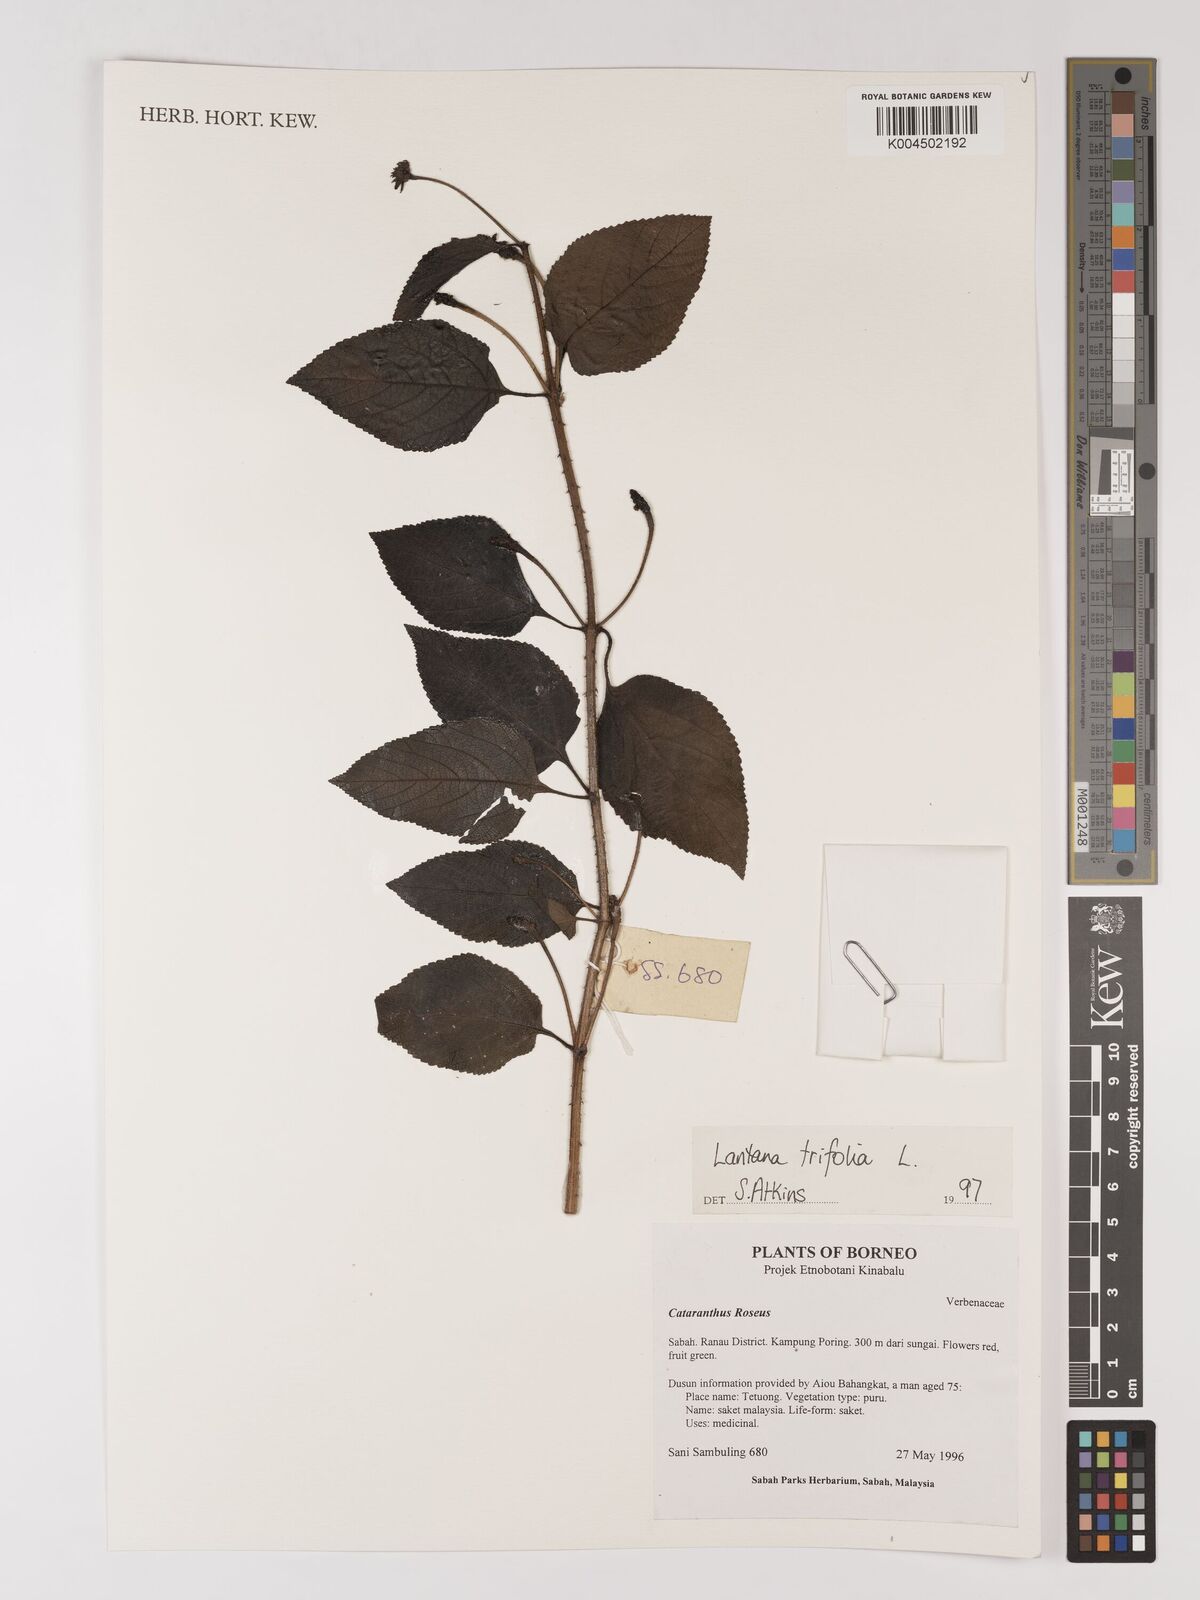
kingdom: Plantae
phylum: Tracheophyta
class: Magnoliopsida
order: Lamiales
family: Verbenaceae
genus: Lantana
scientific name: Lantana trifolia
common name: Sweet-sage
